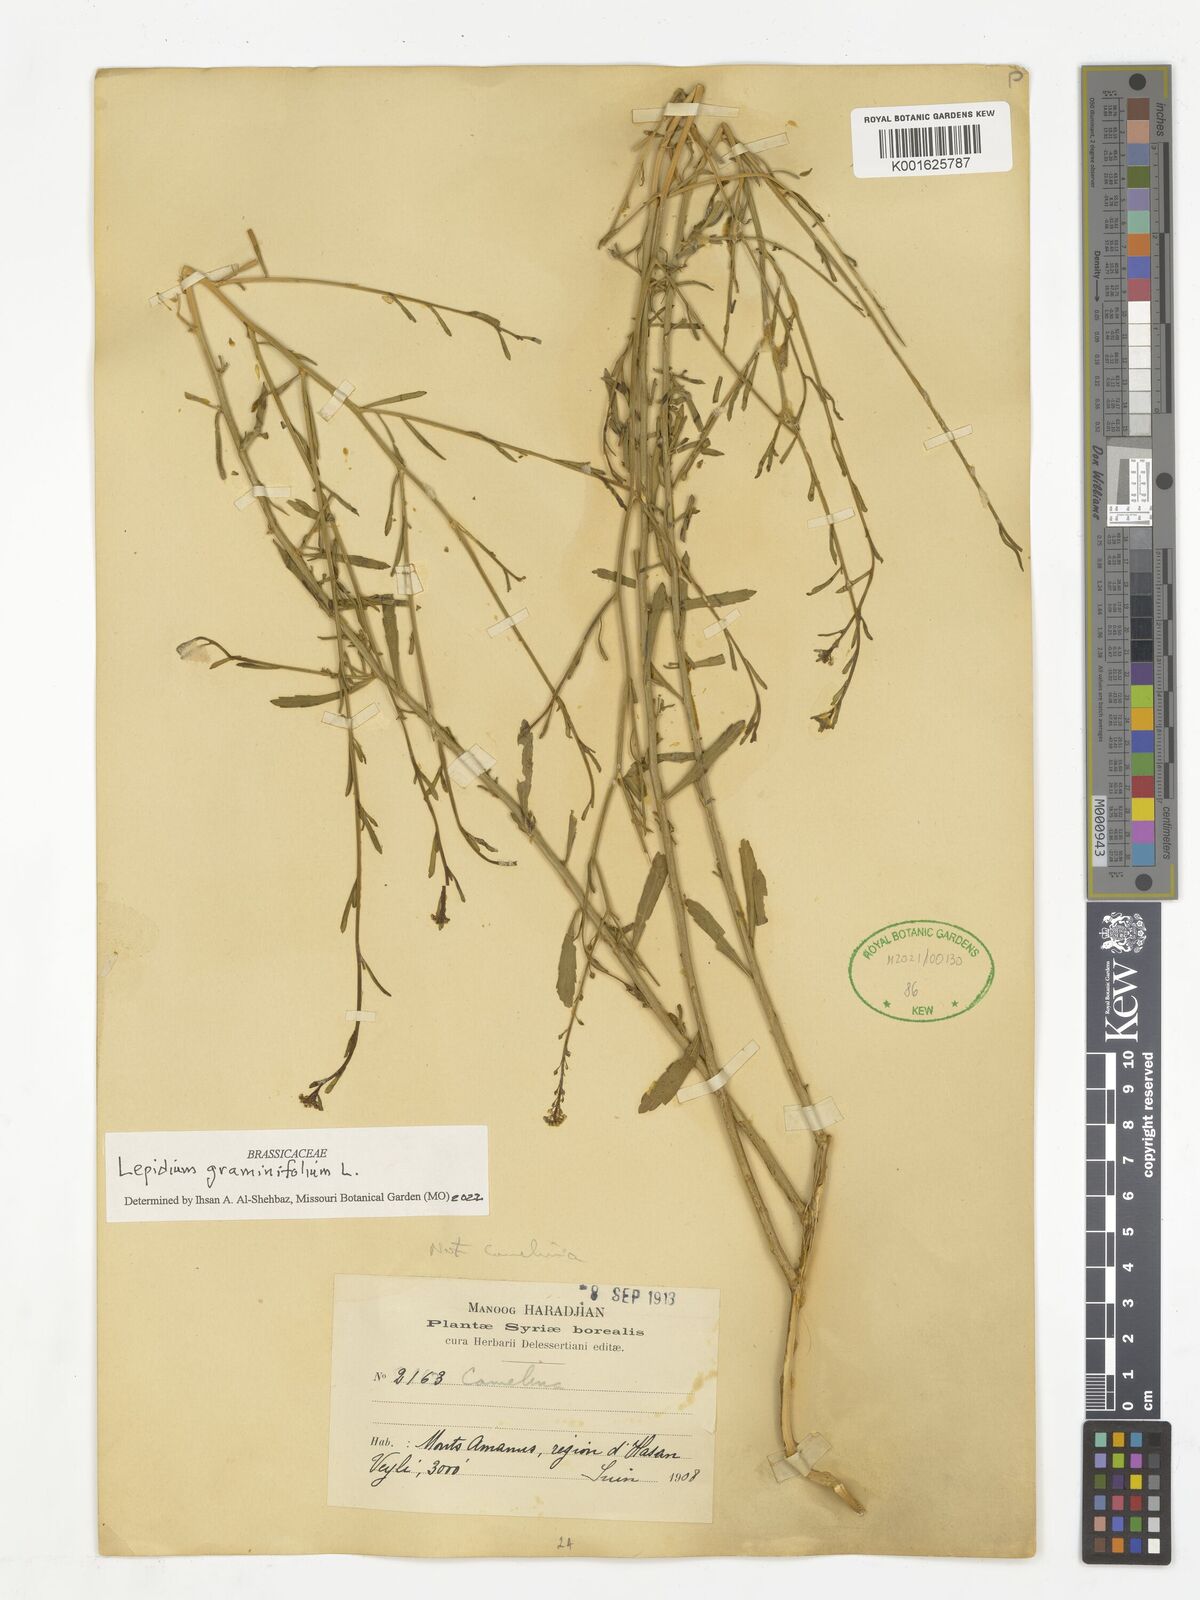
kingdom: Plantae
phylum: Tracheophyta
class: Magnoliopsida
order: Brassicales
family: Brassicaceae
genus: Lepidium
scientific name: Lepidium graminifolium
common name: Tall pepperwort
